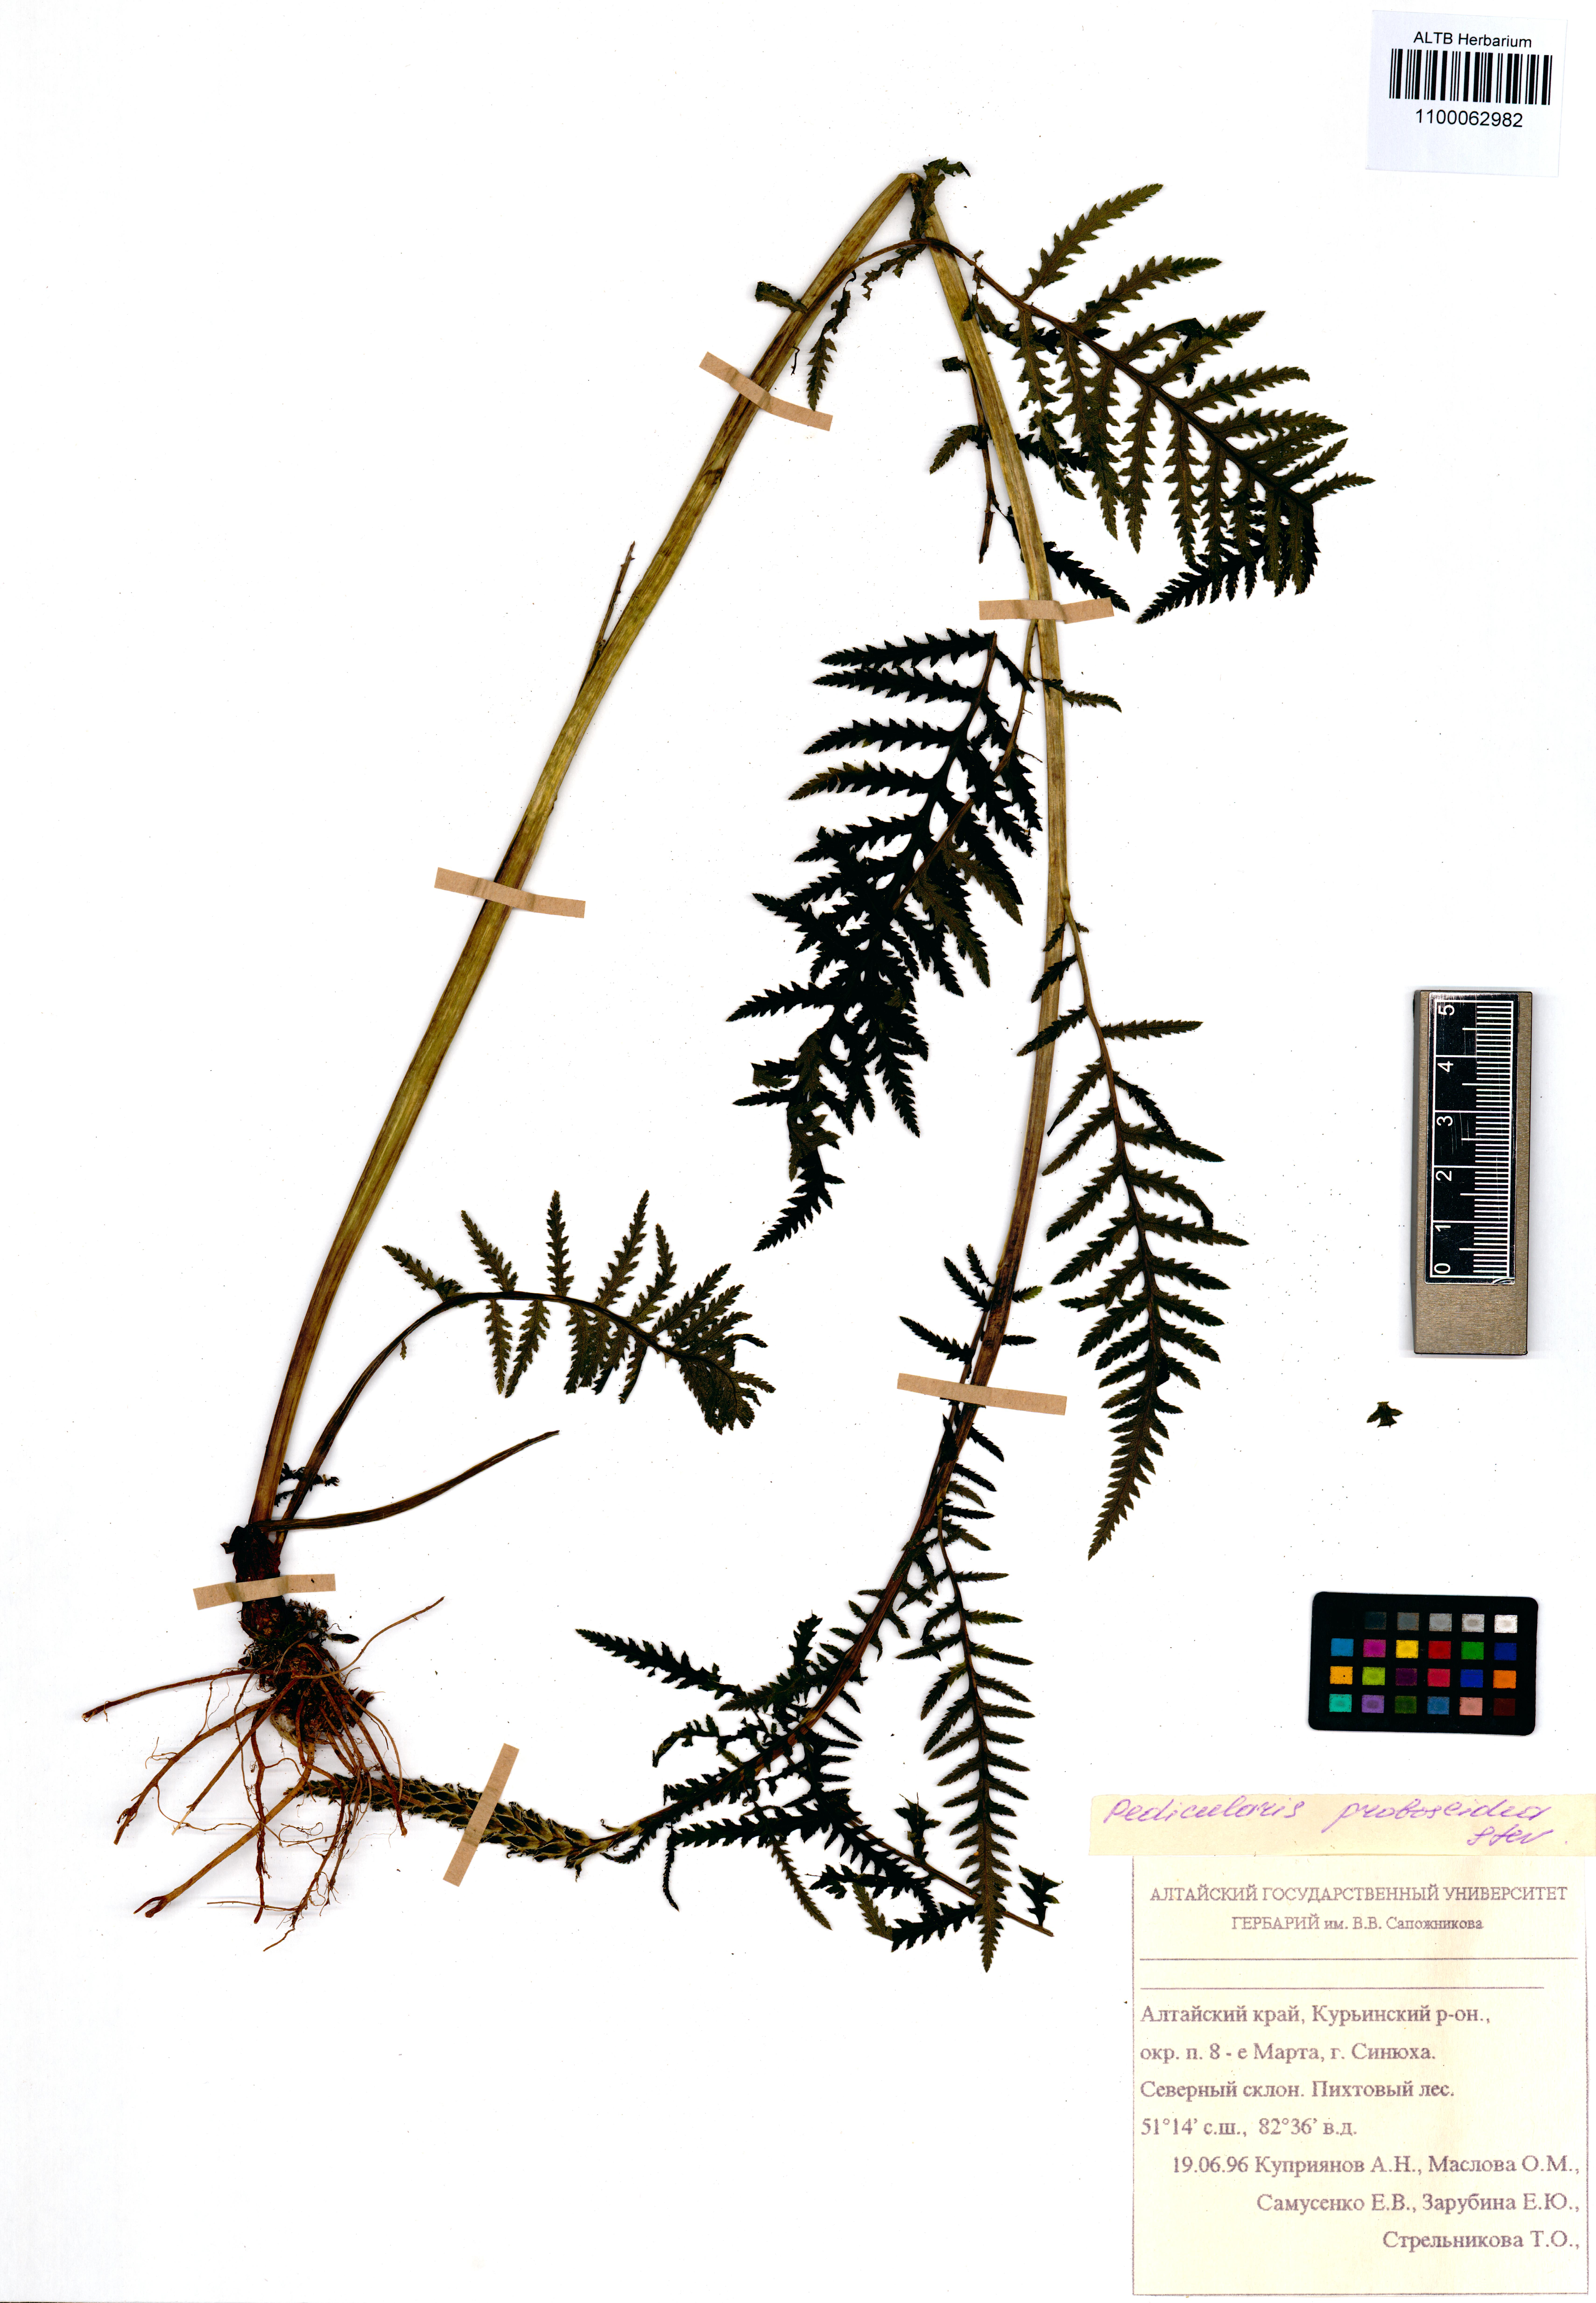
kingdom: Plantae
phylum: Tracheophyta
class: Magnoliopsida
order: Lamiales
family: Orobanchaceae
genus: Pedicularis
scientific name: Pedicularis cenisia
